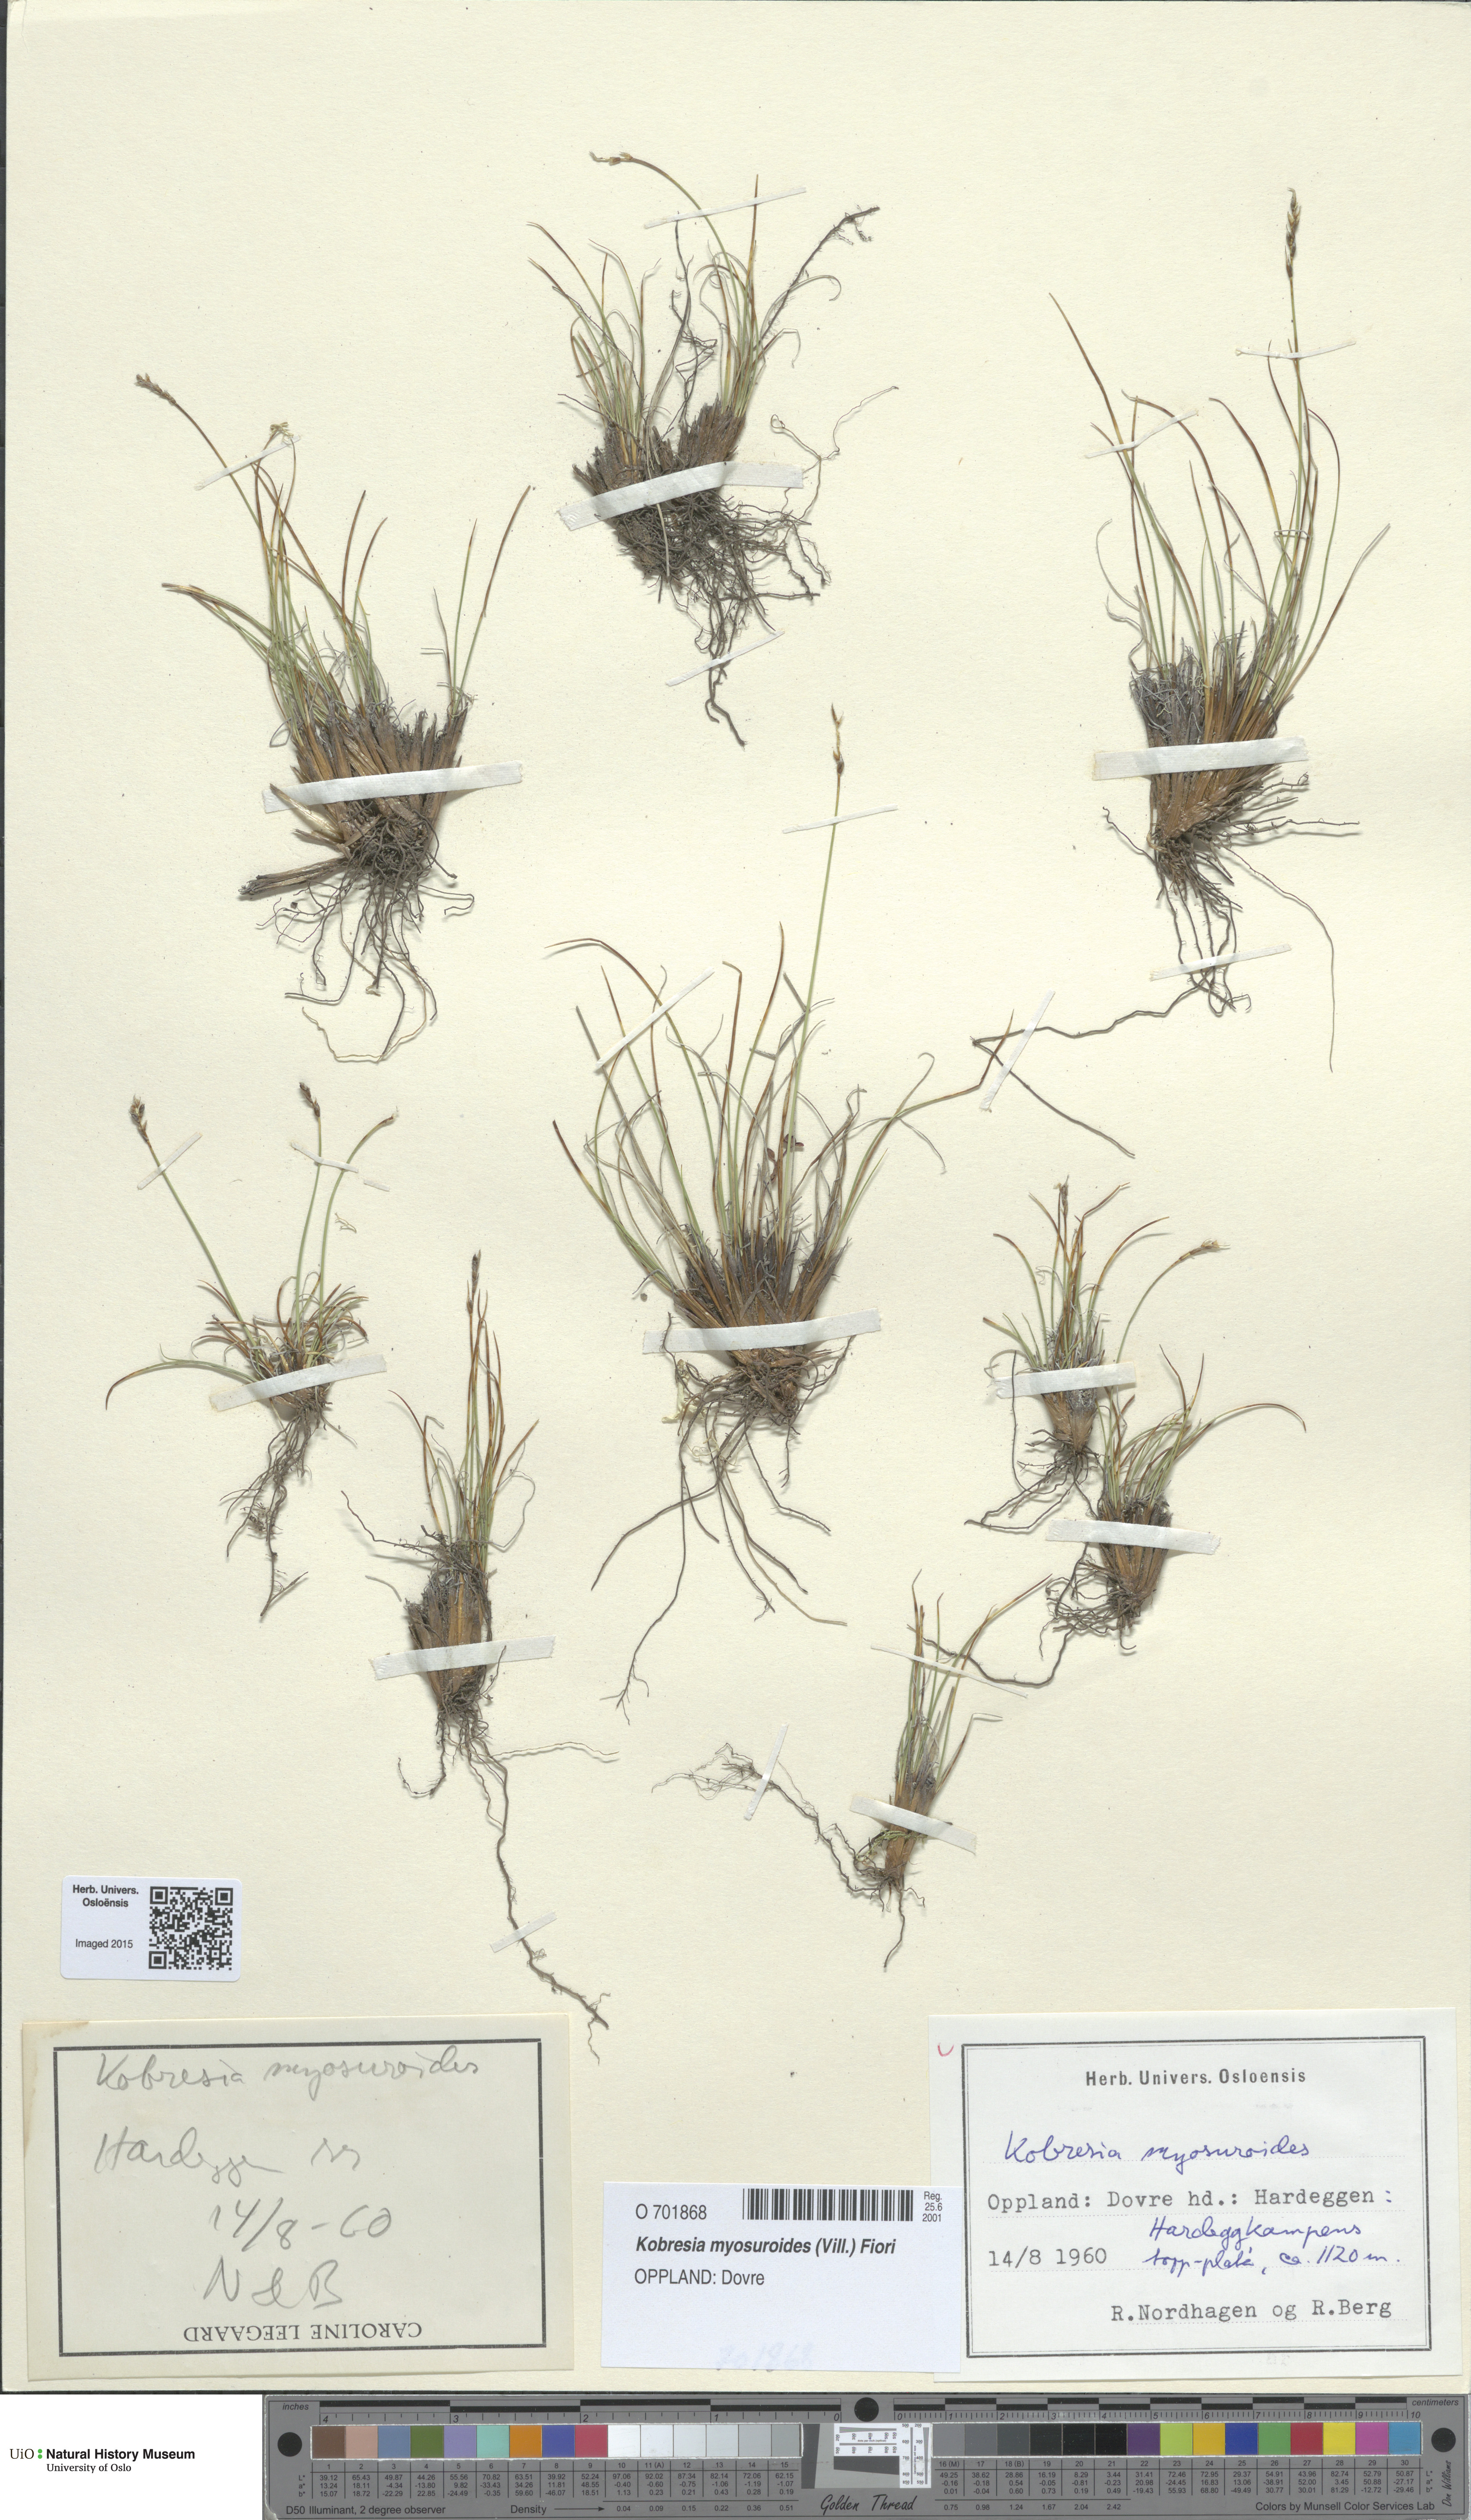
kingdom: Plantae
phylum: Tracheophyta
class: Liliopsida
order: Poales
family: Cyperaceae
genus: Carex
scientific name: Carex myosuroides
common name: Bellard's bog sedge
